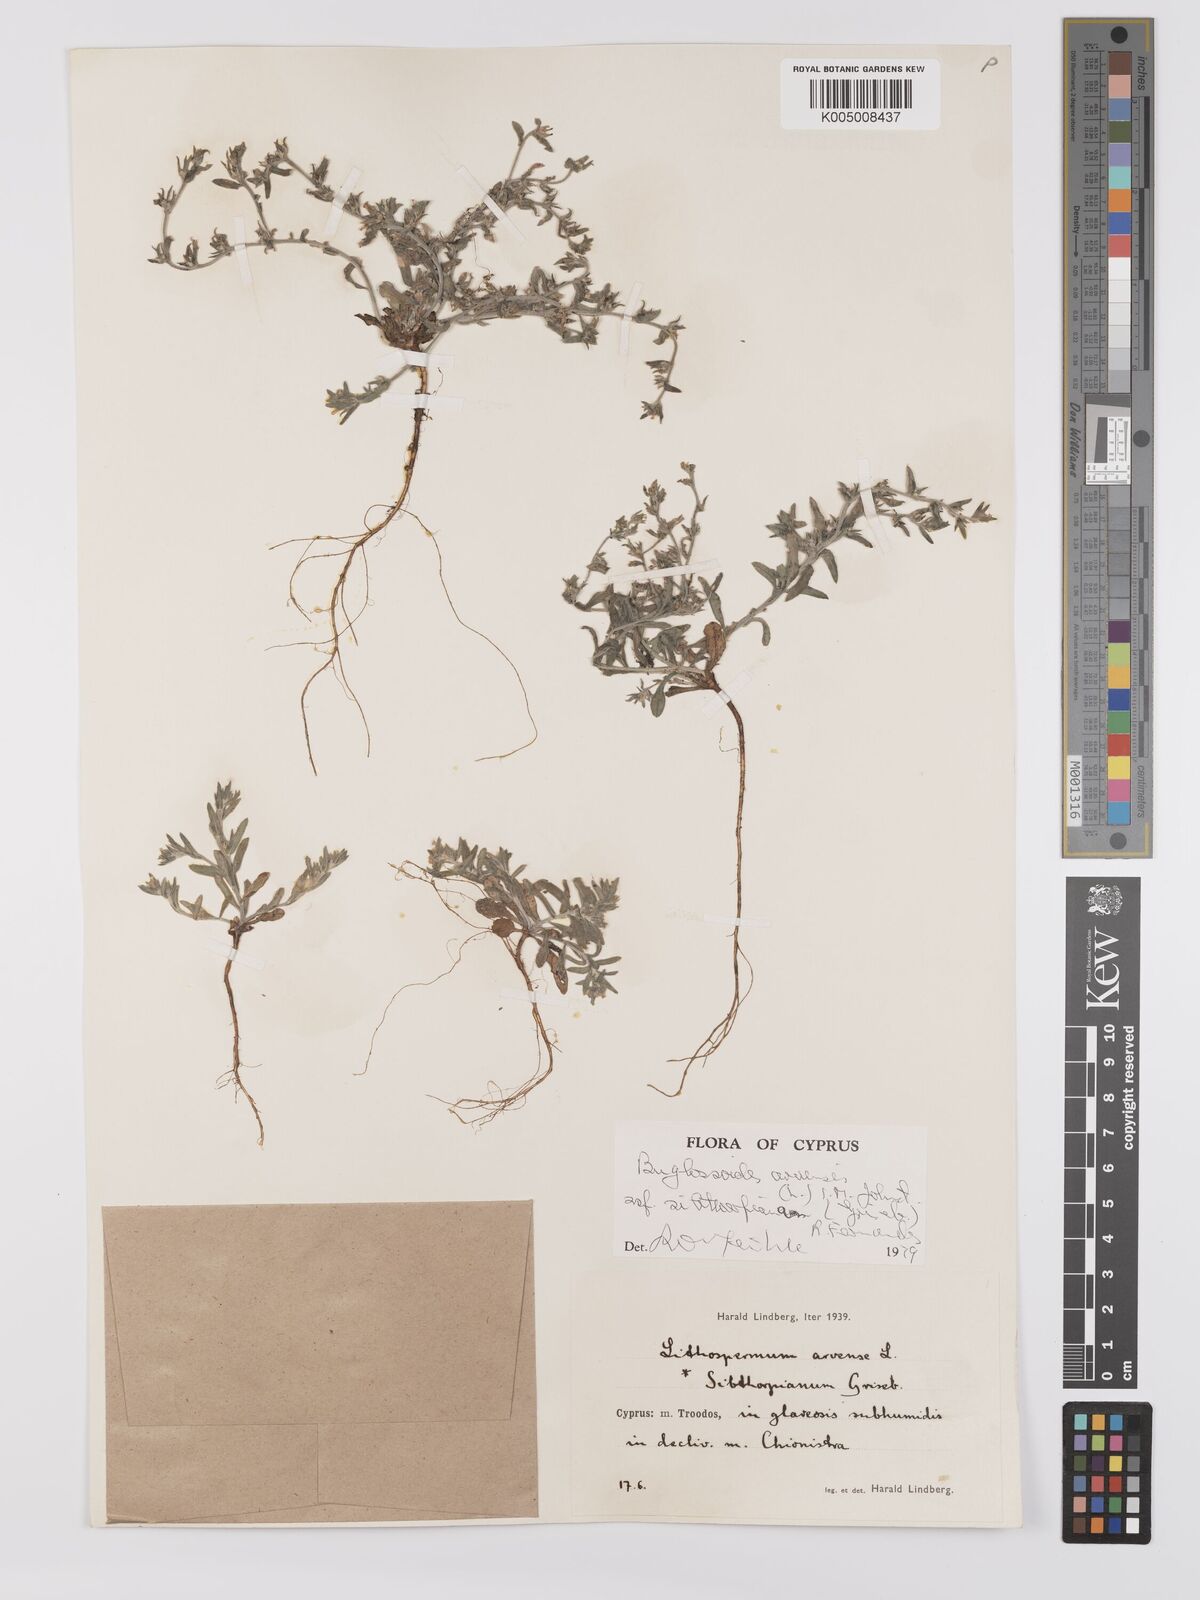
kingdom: Plantae
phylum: Tracheophyta
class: Magnoliopsida
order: Boraginales
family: Boraginaceae
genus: Buglossoides
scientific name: Buglossoides
